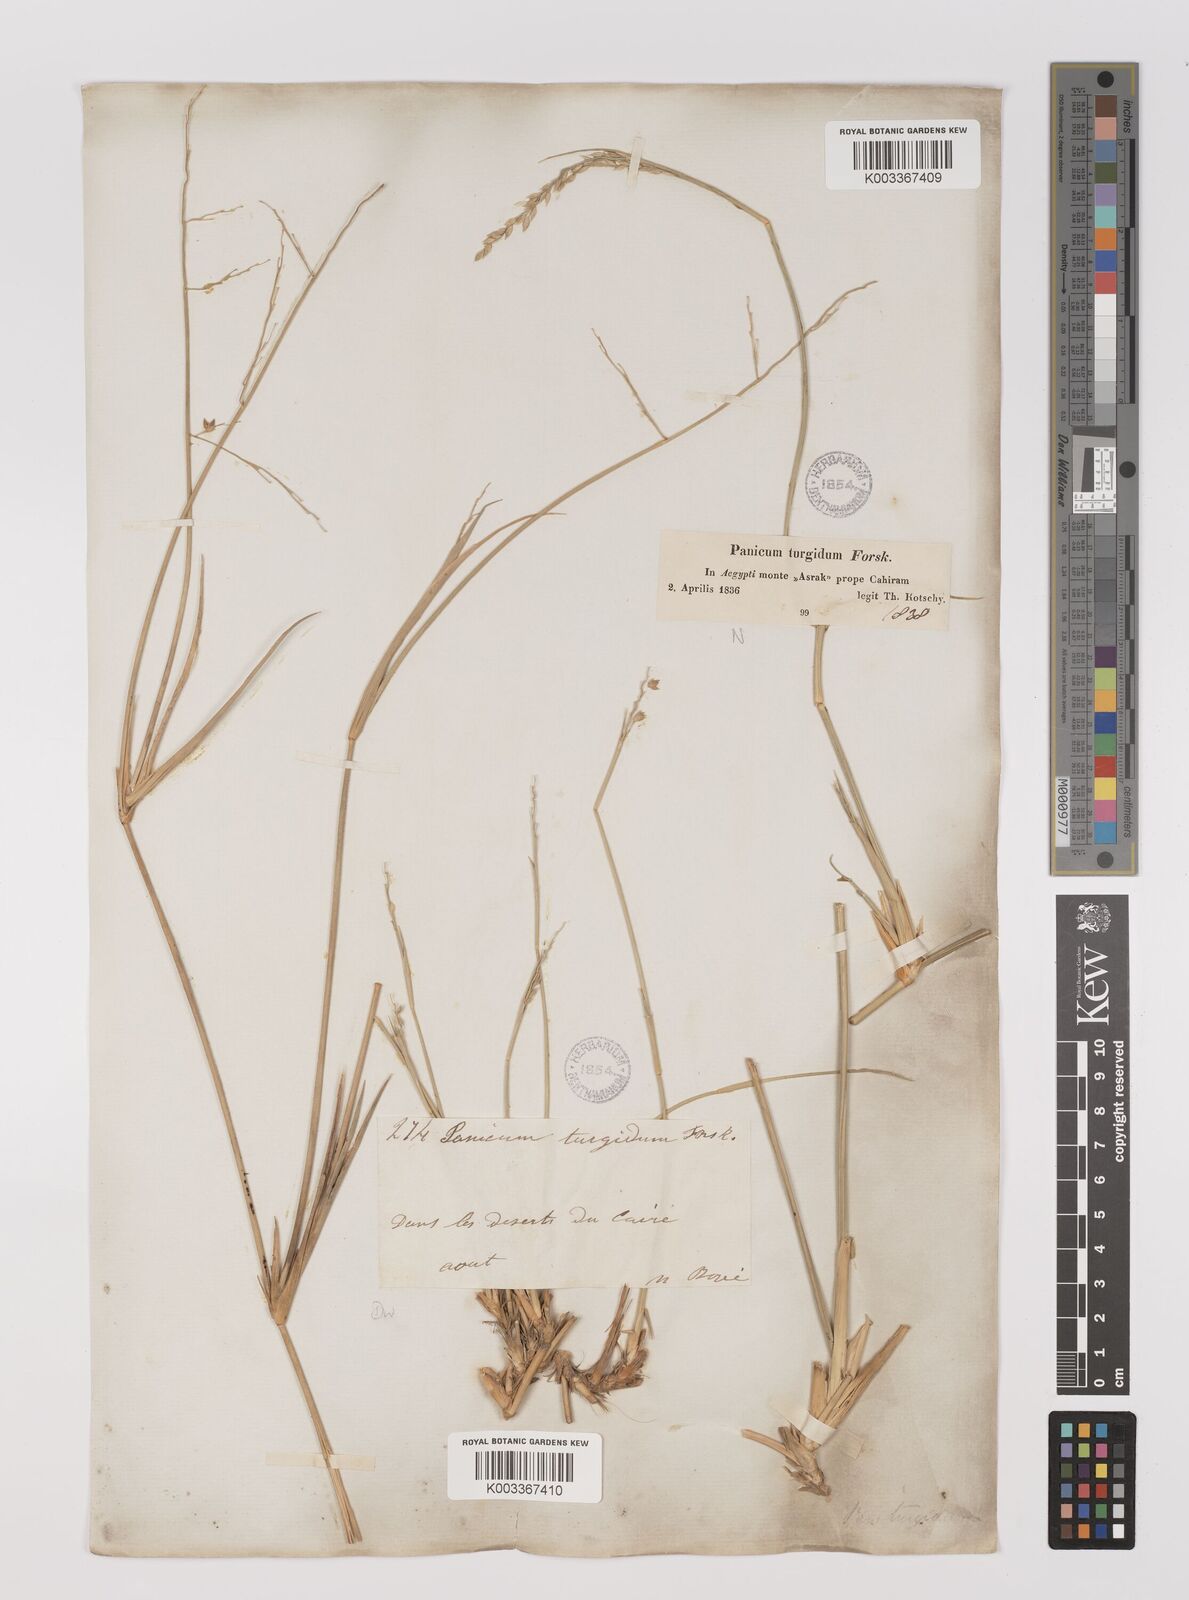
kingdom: Plantae
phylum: Tracheophyta
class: Liliopsida
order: Poales
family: Poaceae
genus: Panicum
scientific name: Panicum turgidum
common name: Desert grass
